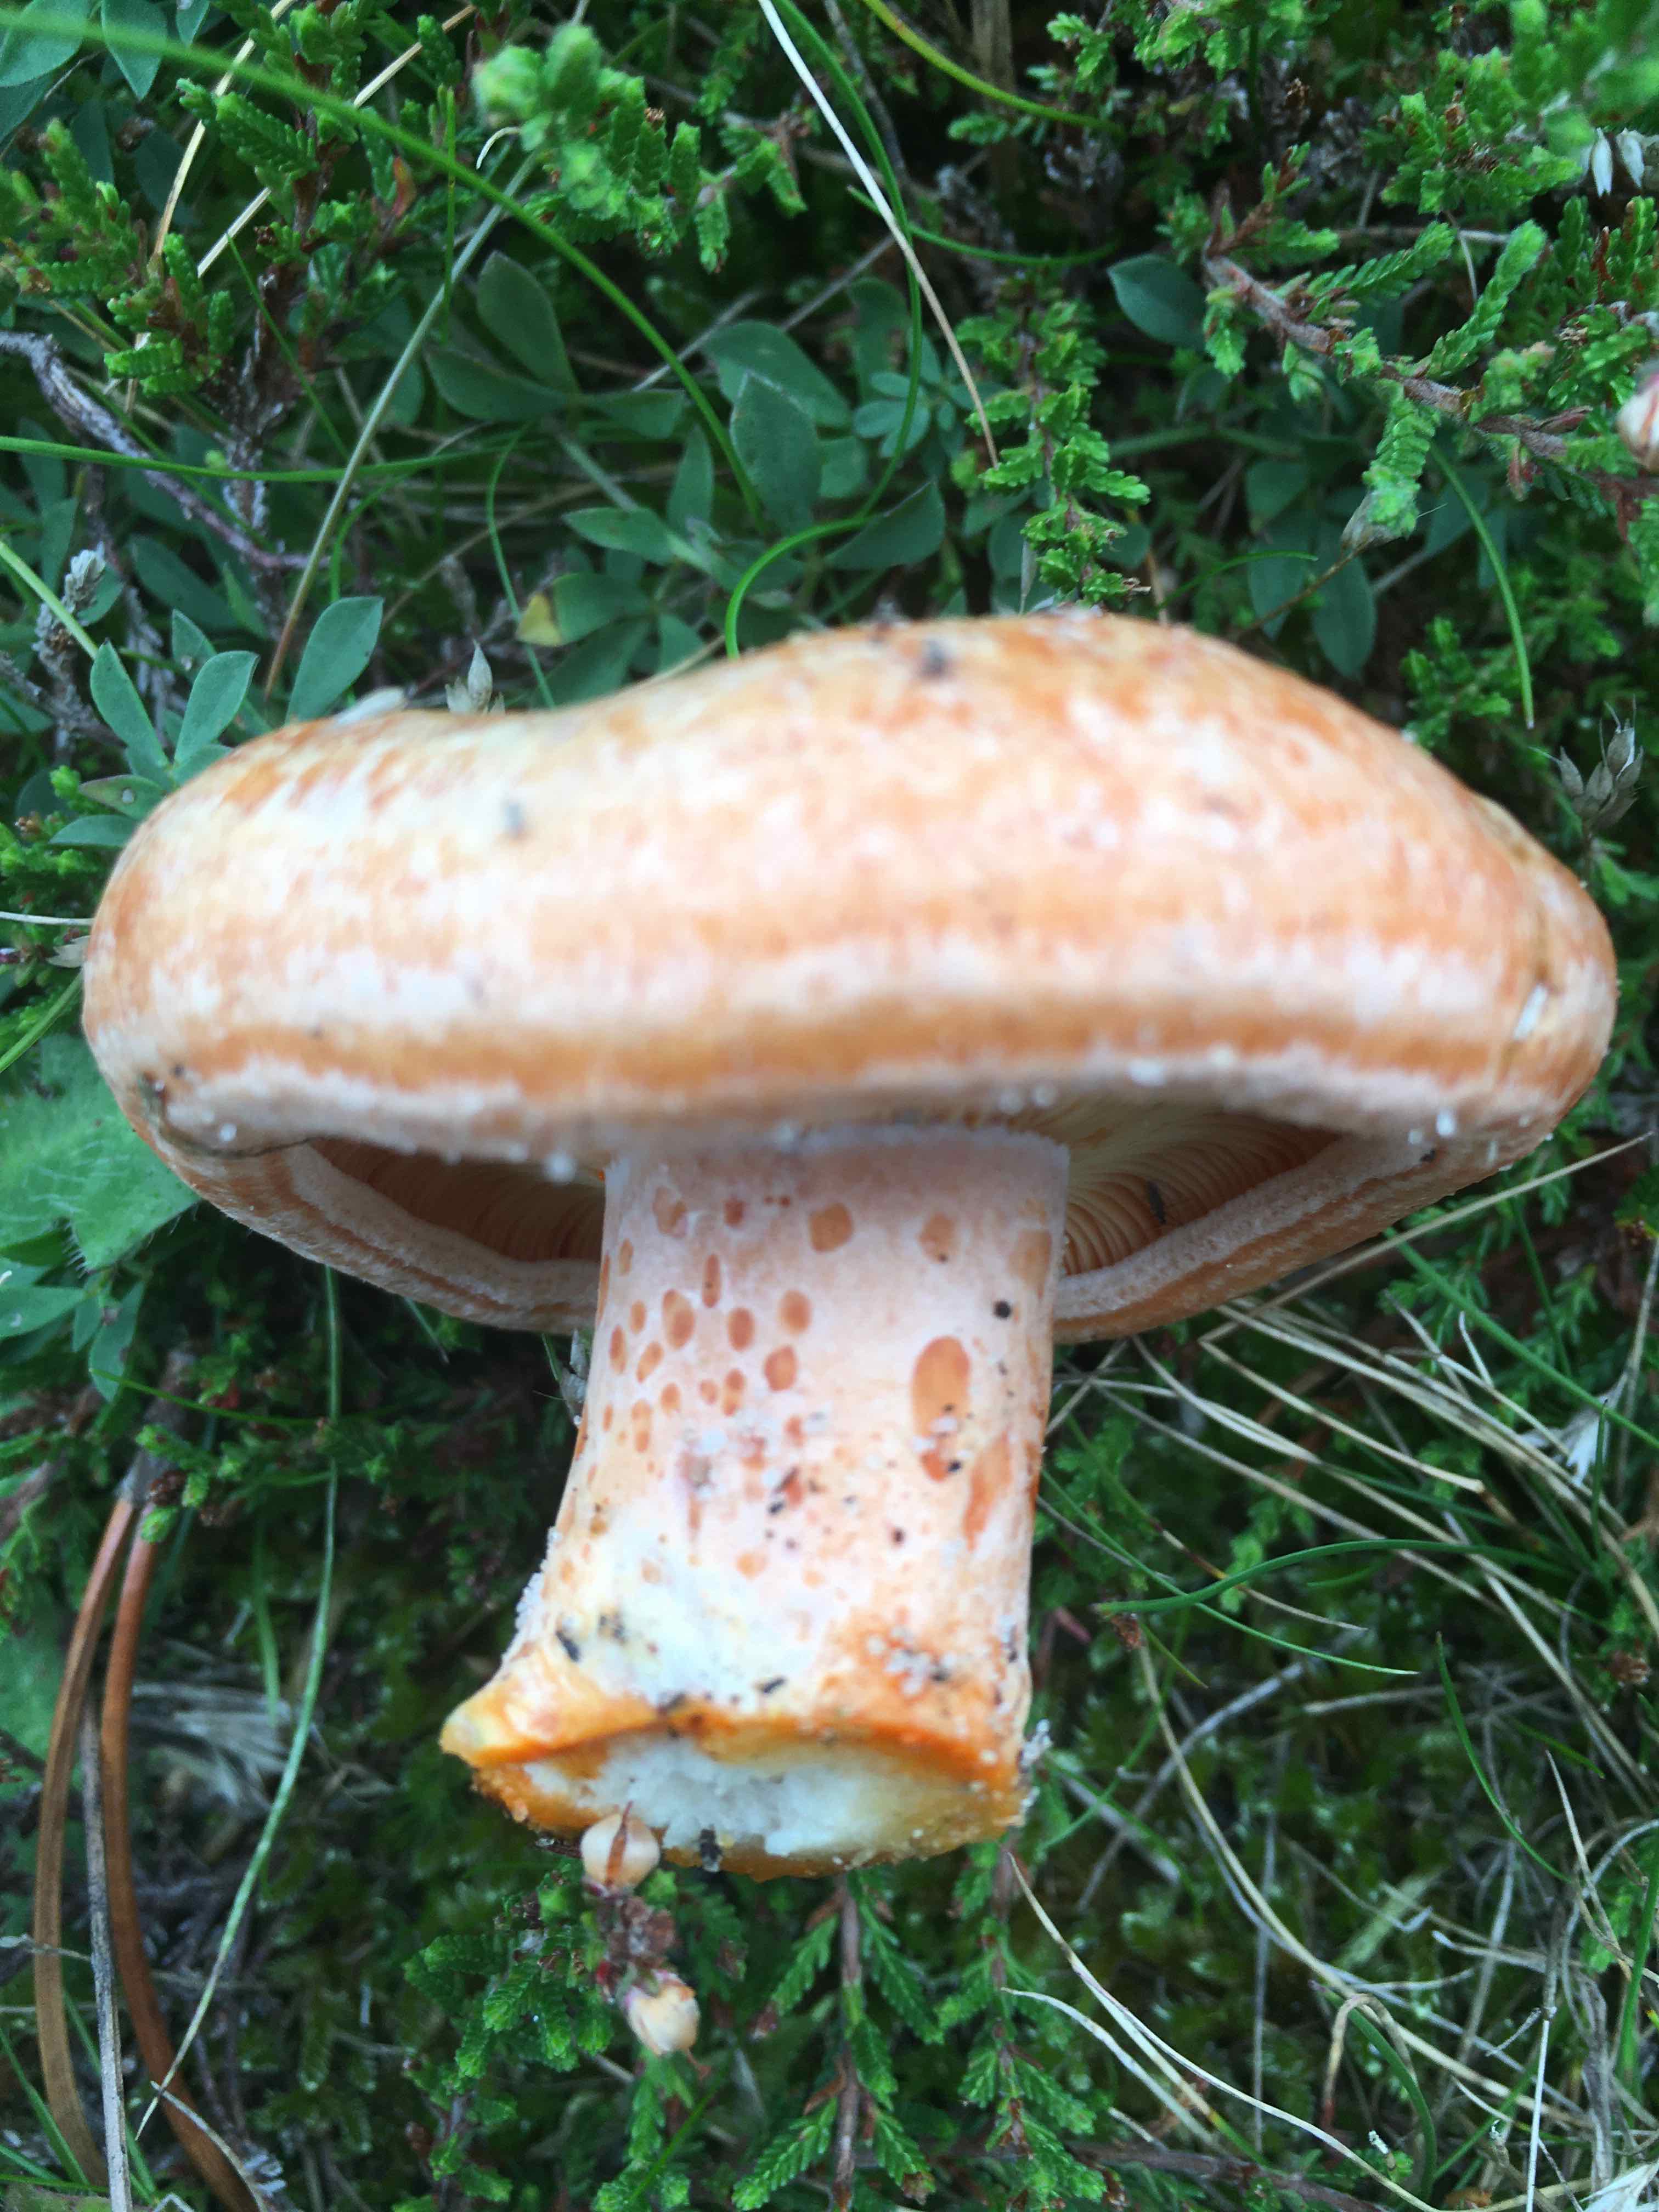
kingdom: Fungi
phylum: Basidiomycota
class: Agaricomycetes
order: Russulales
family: Russulaceae
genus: Lactarius
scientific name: Lactarius deliciosus
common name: velsmagende mælkehat
